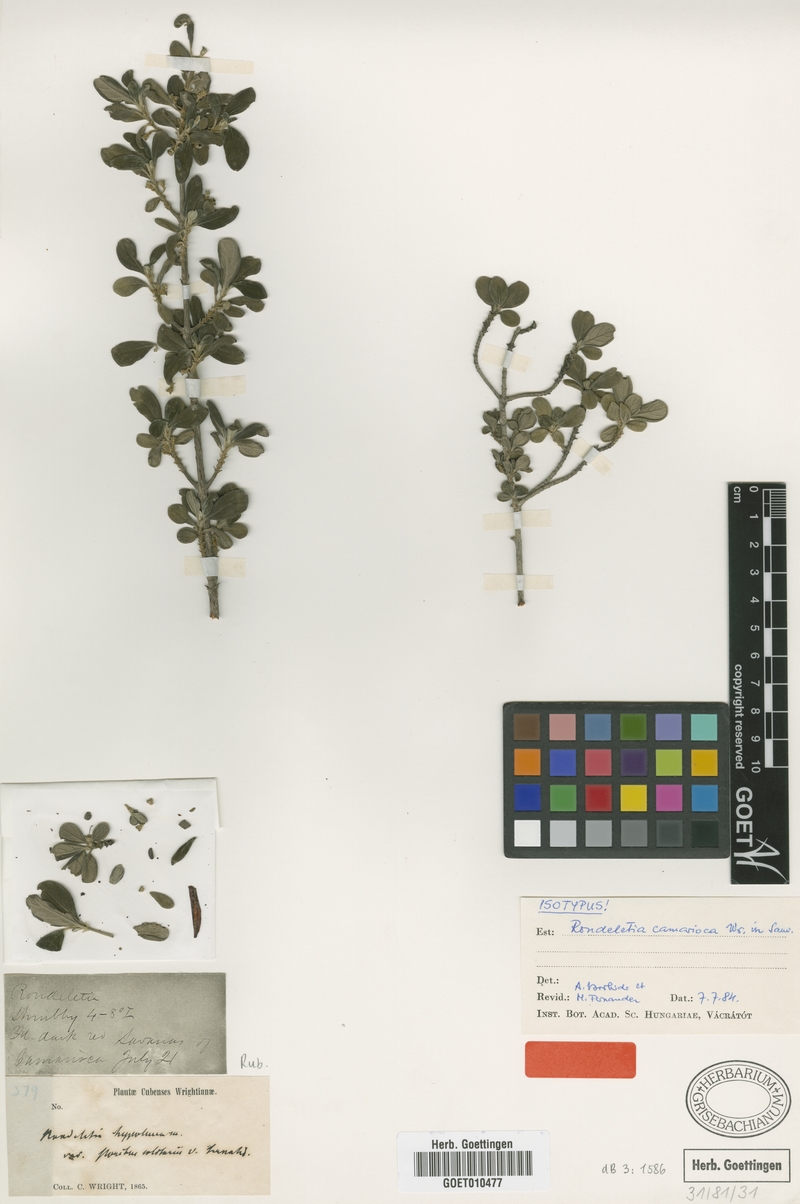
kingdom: Plantae
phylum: Tracheophyta
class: Magnoliopsida
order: Gentianales
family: Rubiaceae
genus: Rondeletia
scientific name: Rondeletia camarioca
